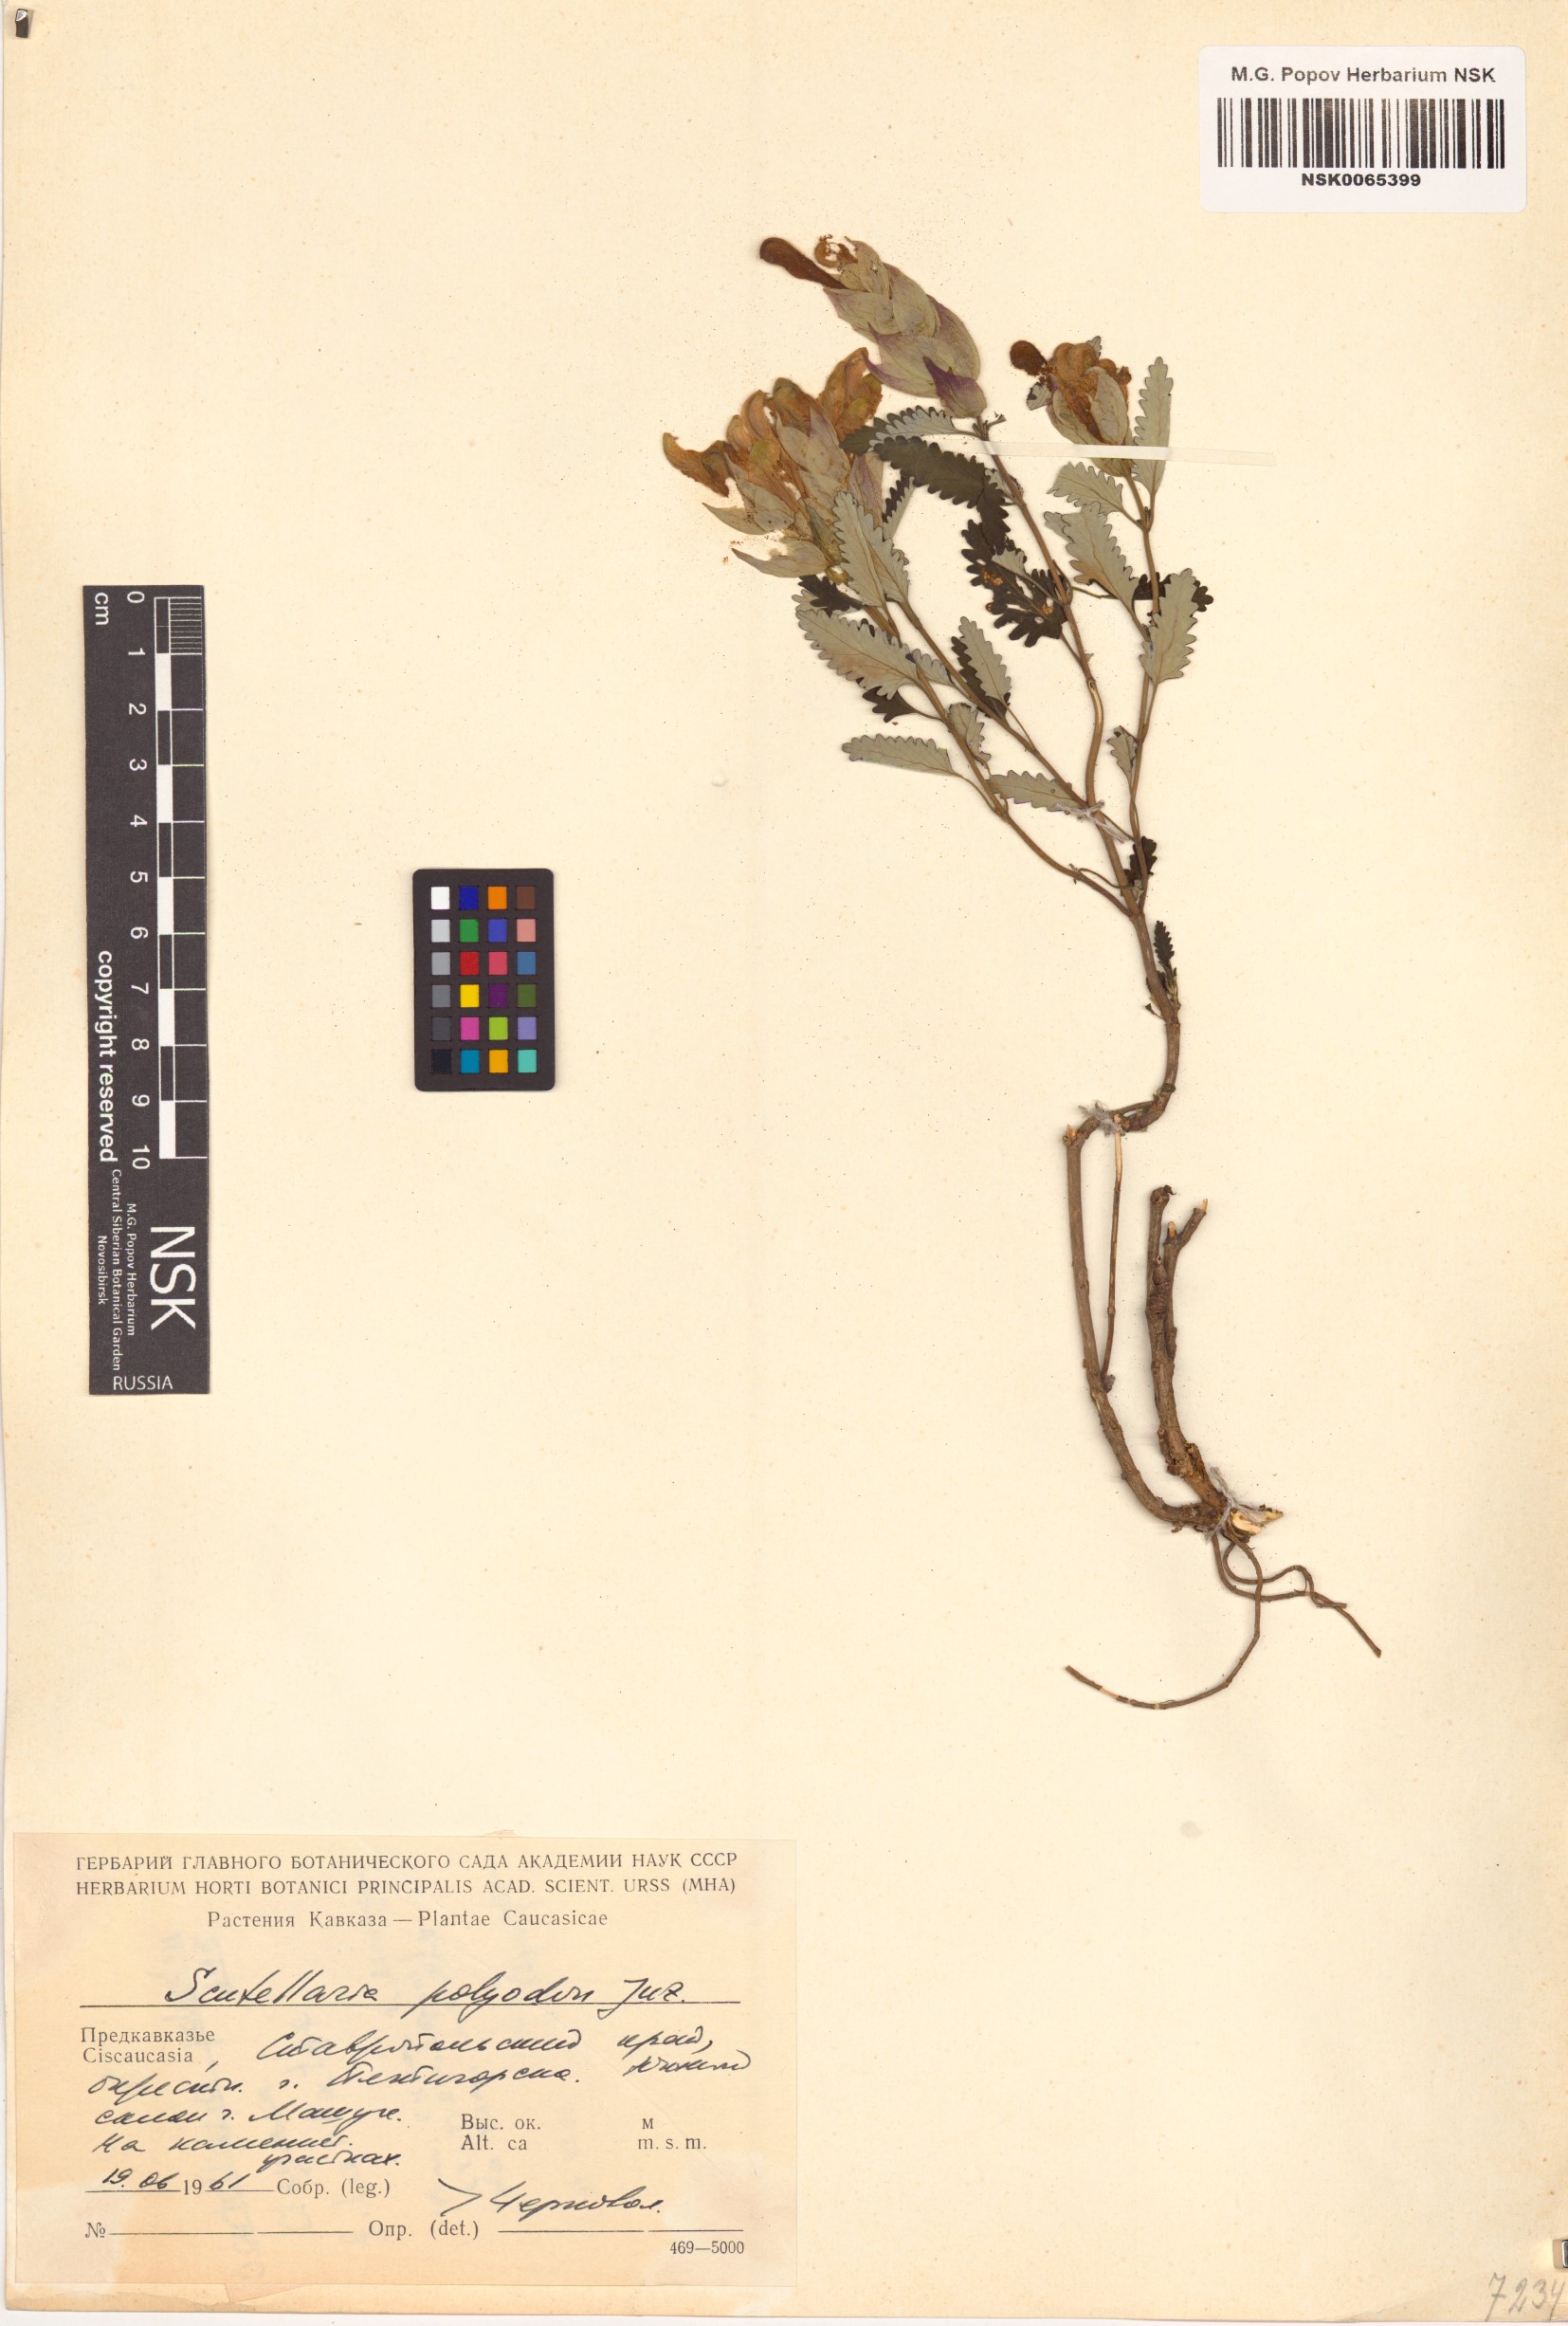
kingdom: Plantae
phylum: Tracheophyta
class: Magnoliopsida
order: Lamiales
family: Lamiaceae
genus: Scutellaria
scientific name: Scutellaria caucasica
